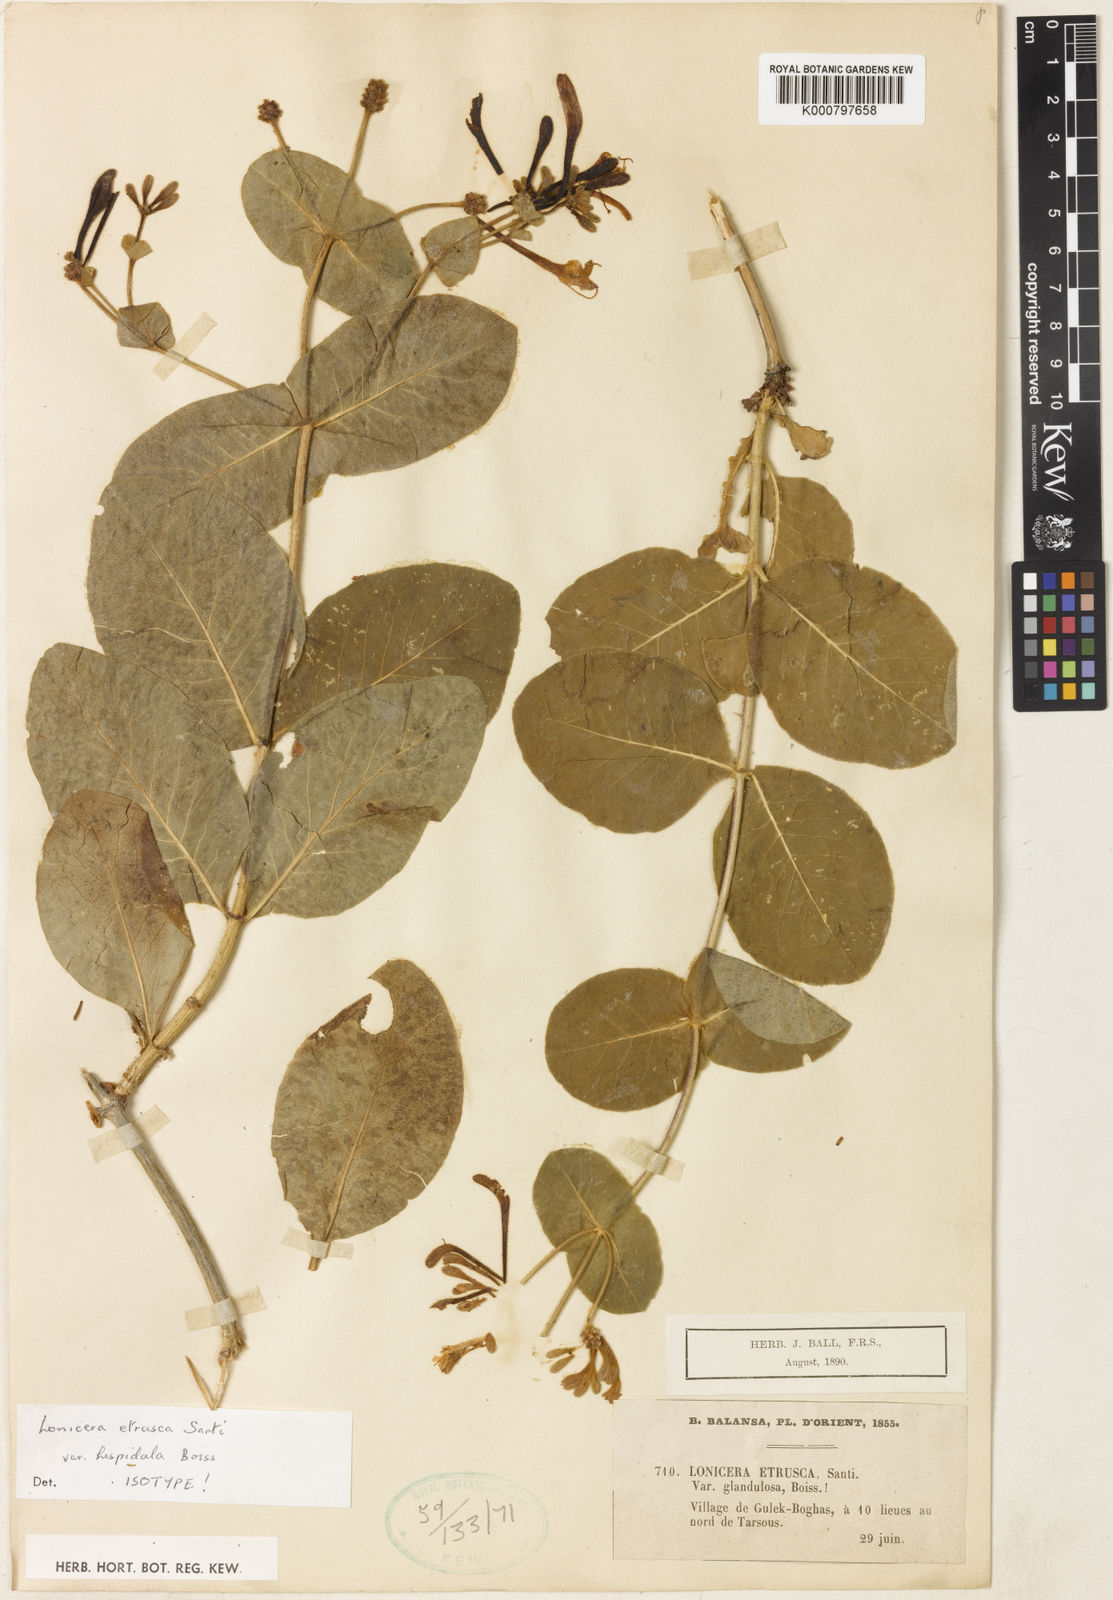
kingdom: Plantae
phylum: Tracheophyta
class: Magnoliopsida
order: Dipsacales
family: Caprifoliaceae
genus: Lonicera
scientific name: Lonicera etrusca
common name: Etruscan honeysuckle
